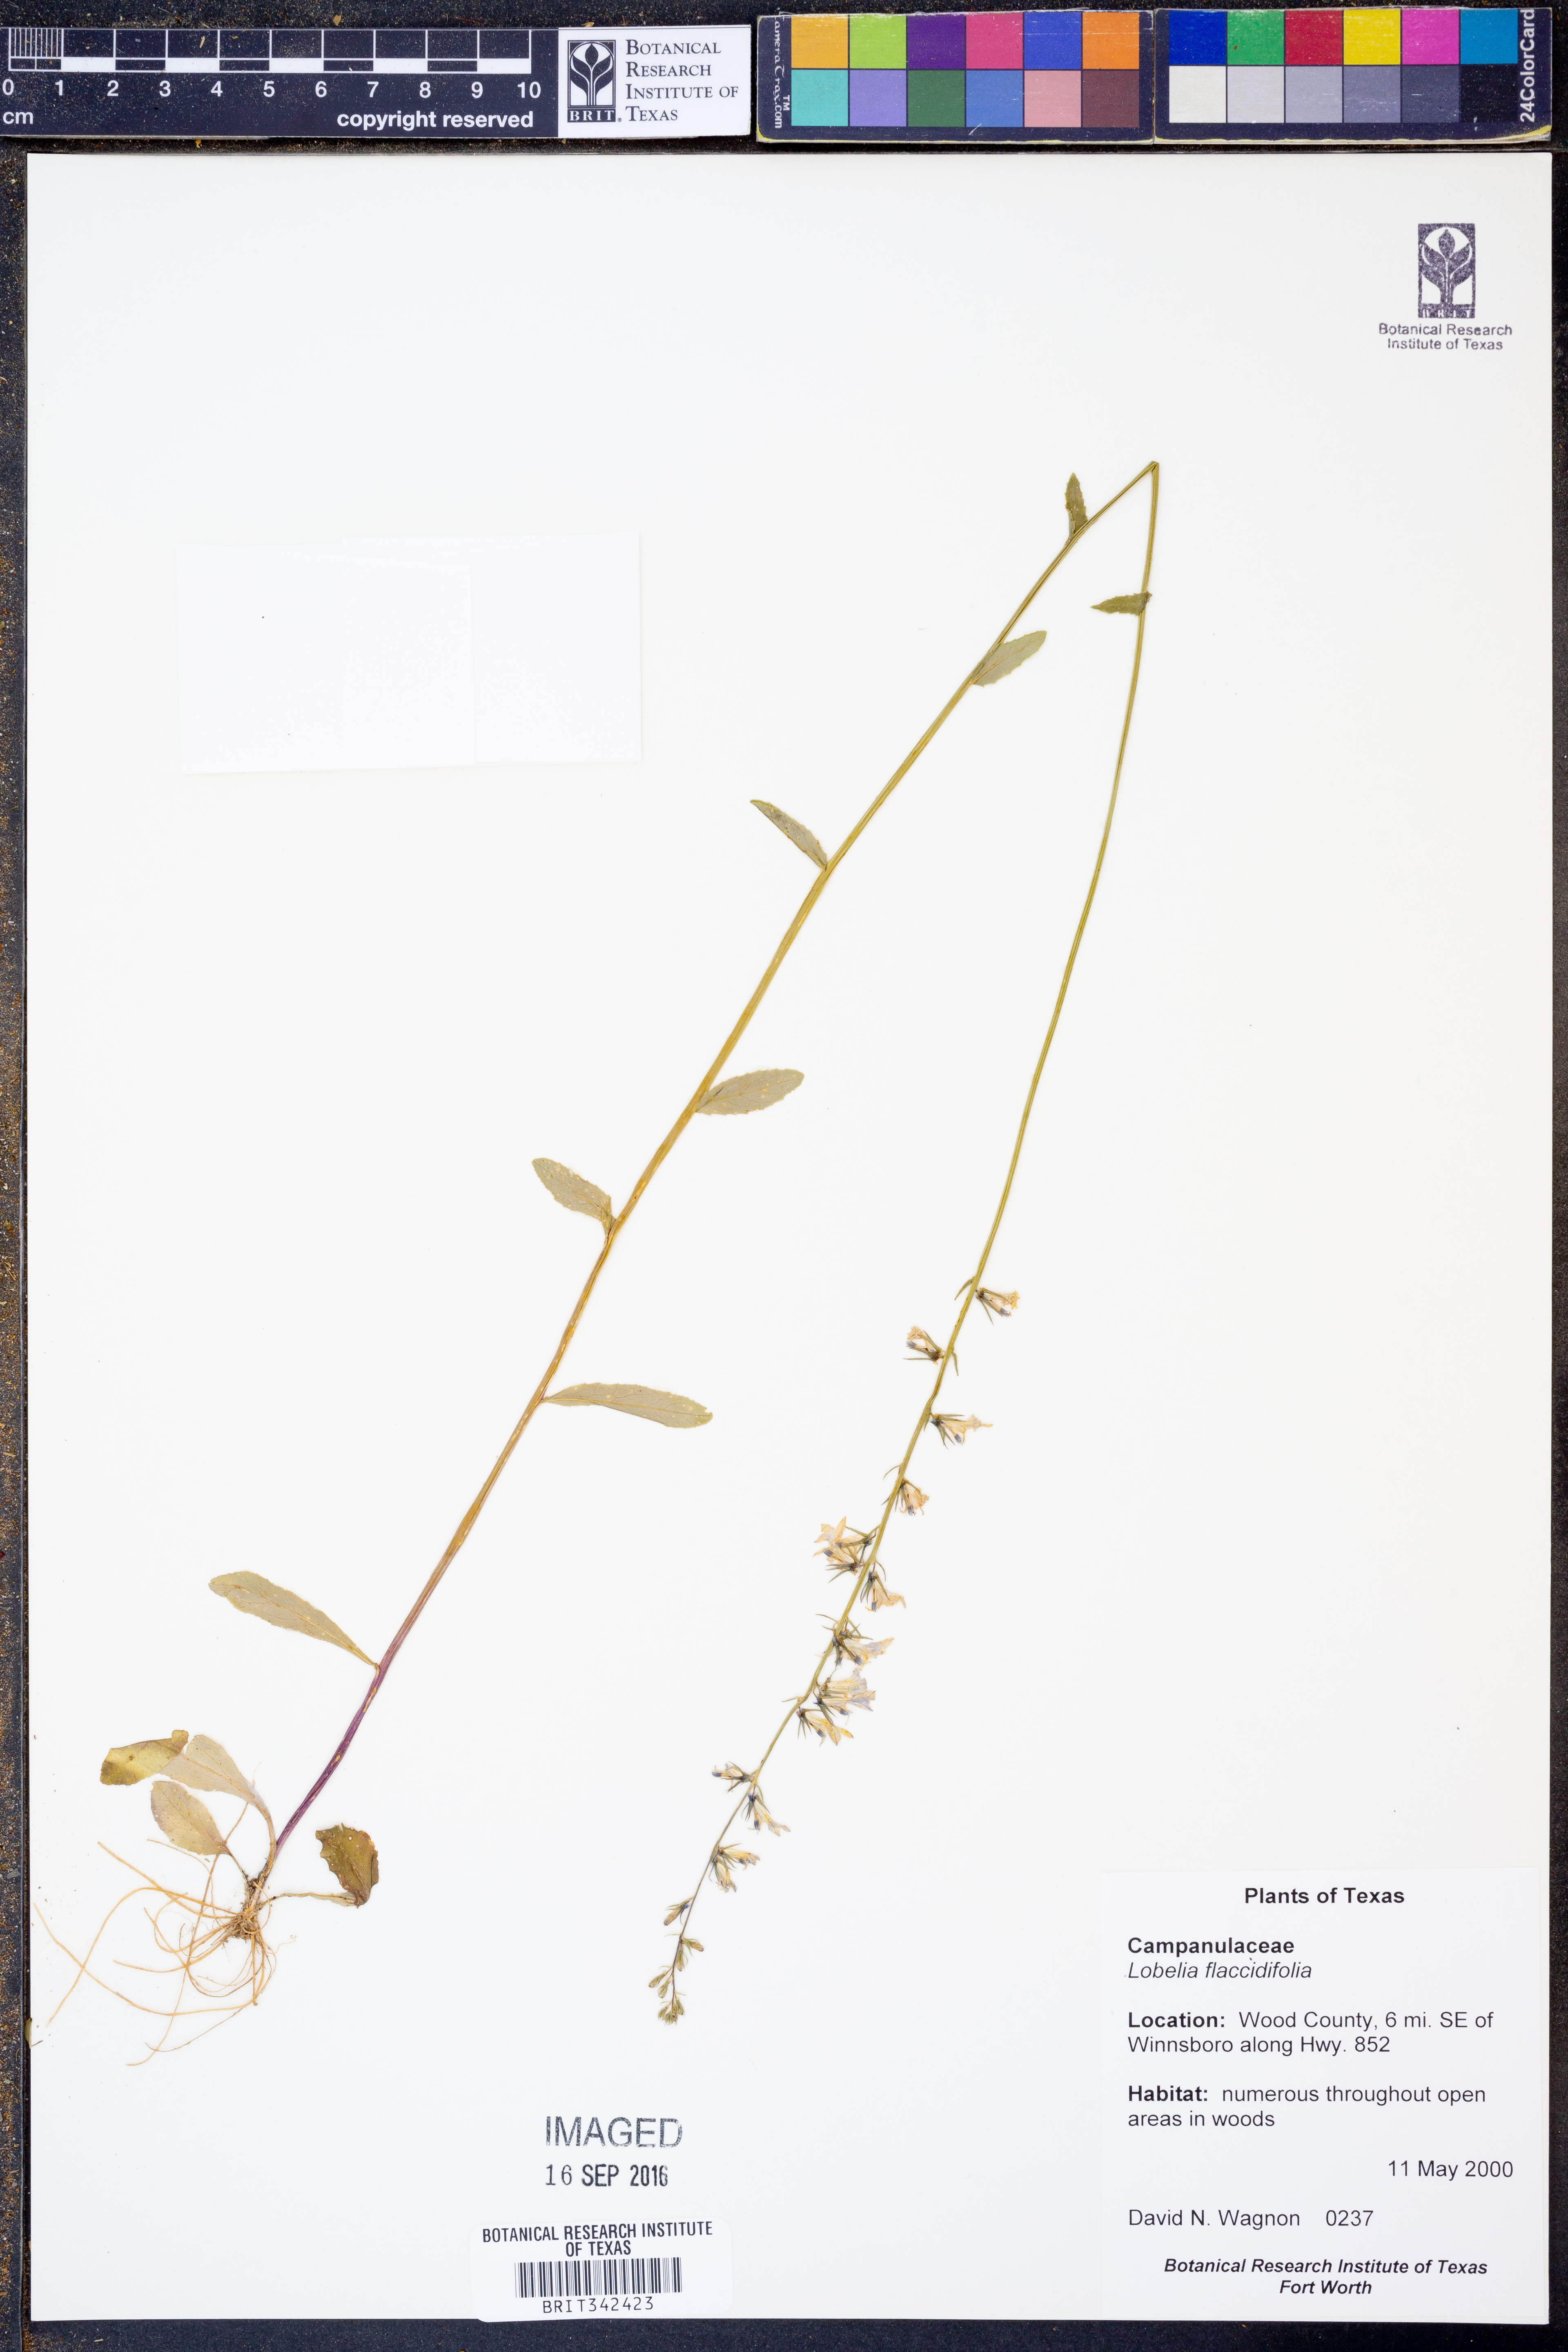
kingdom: Plantae
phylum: Tracheophyta
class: Magnoliopsida
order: Asterales
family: Campanulaceae
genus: Lobelia
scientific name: Lobelia flaccidifolia
